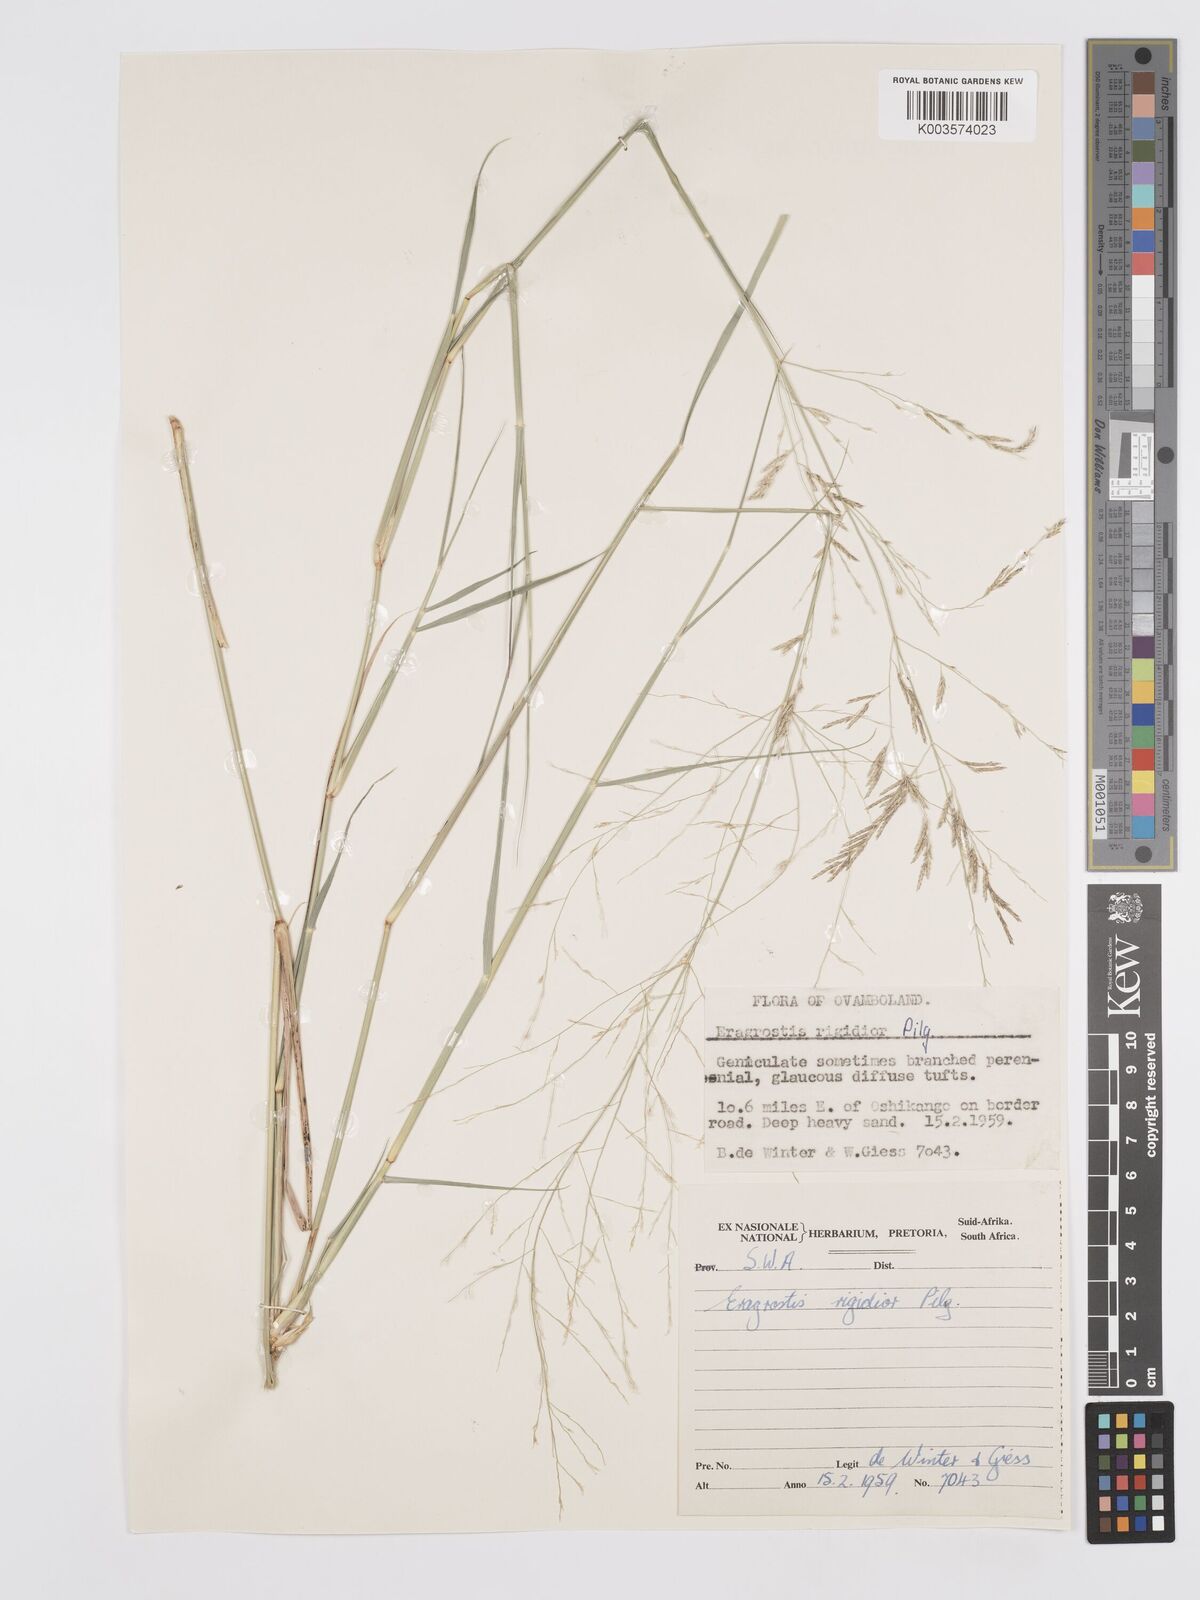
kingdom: Plantae
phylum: Tracheophyta
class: Liliopsida
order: Poales
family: Poaceae
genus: Eragrostis
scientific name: Eragrostis cylindriflora
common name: Cylinderflower lovegrass
